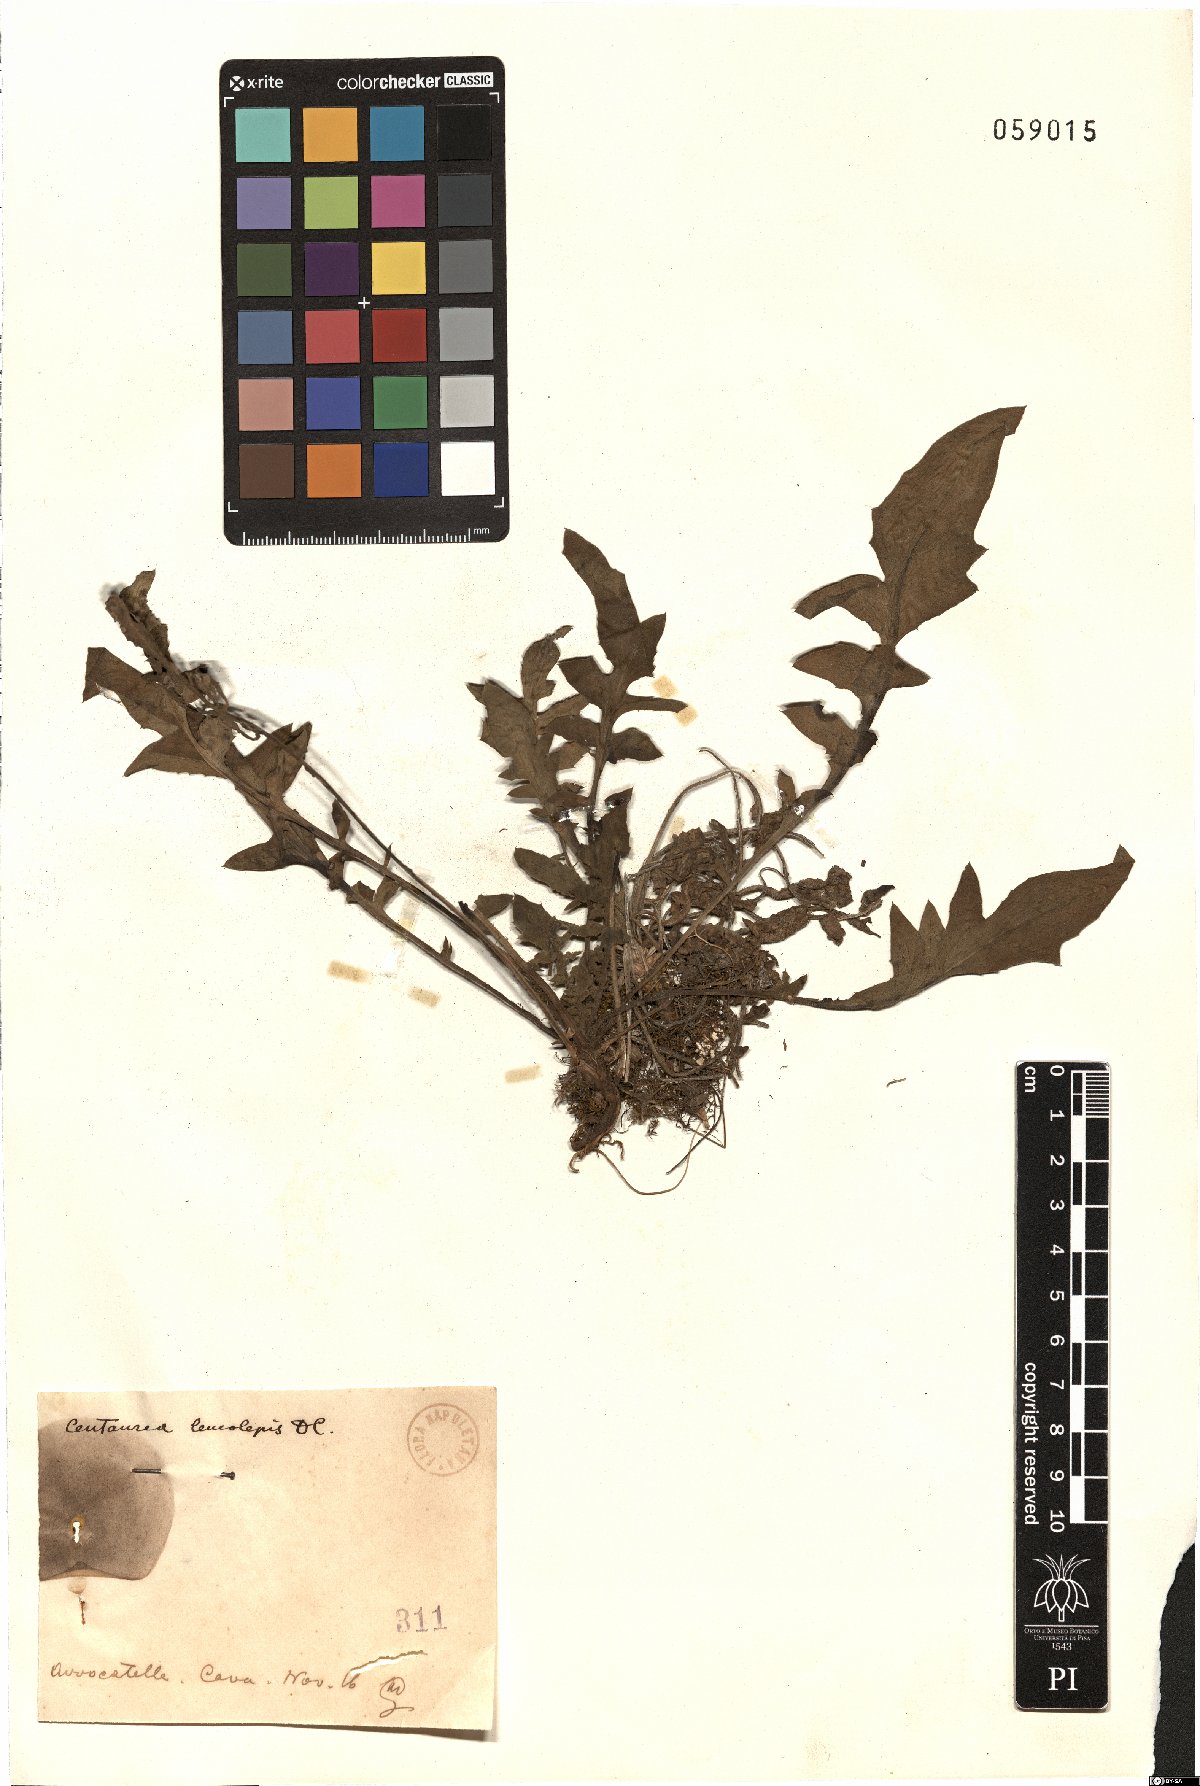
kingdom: Plantae
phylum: Tracheophyta
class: Magnoliopsida
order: Asterales
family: Asteraceae
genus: Centaurea
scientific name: Centaurea
